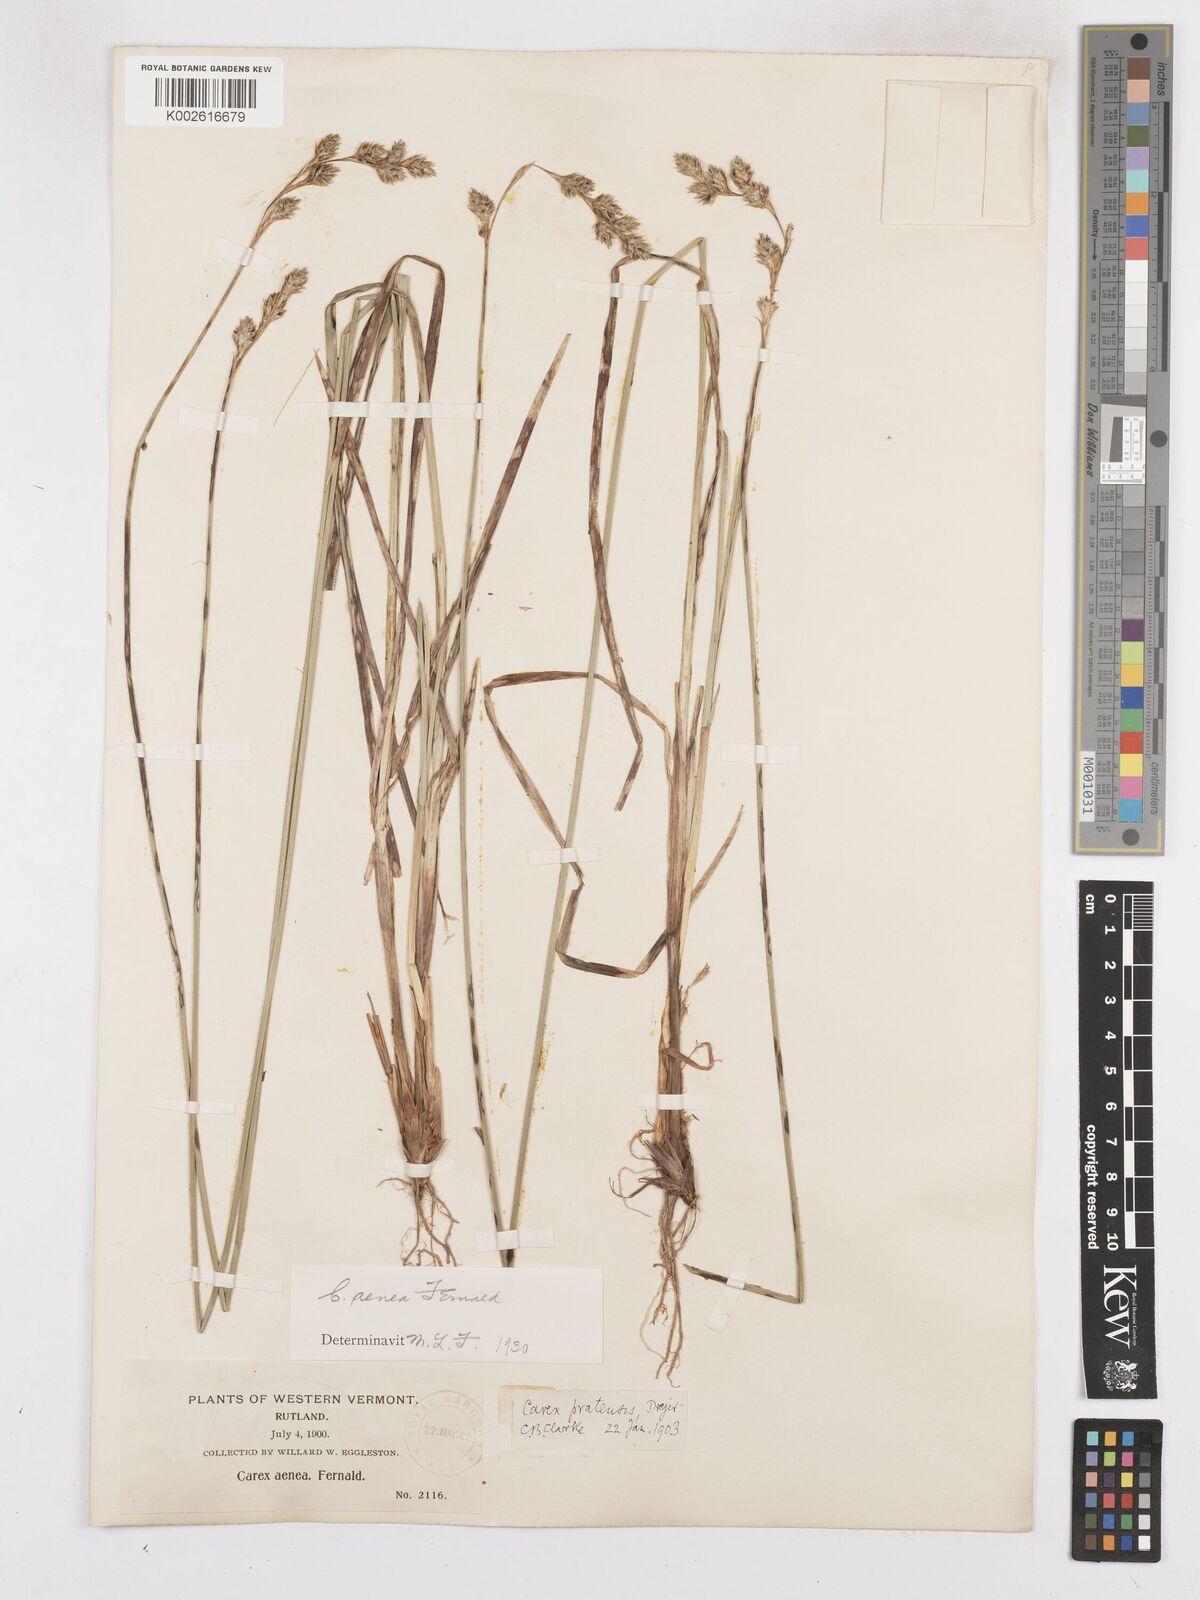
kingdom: Plantae
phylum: Tracheophyta
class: Liliopsida
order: Poales
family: Cyperaceae
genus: Carex
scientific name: Carex foenea
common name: Bronze sedge
